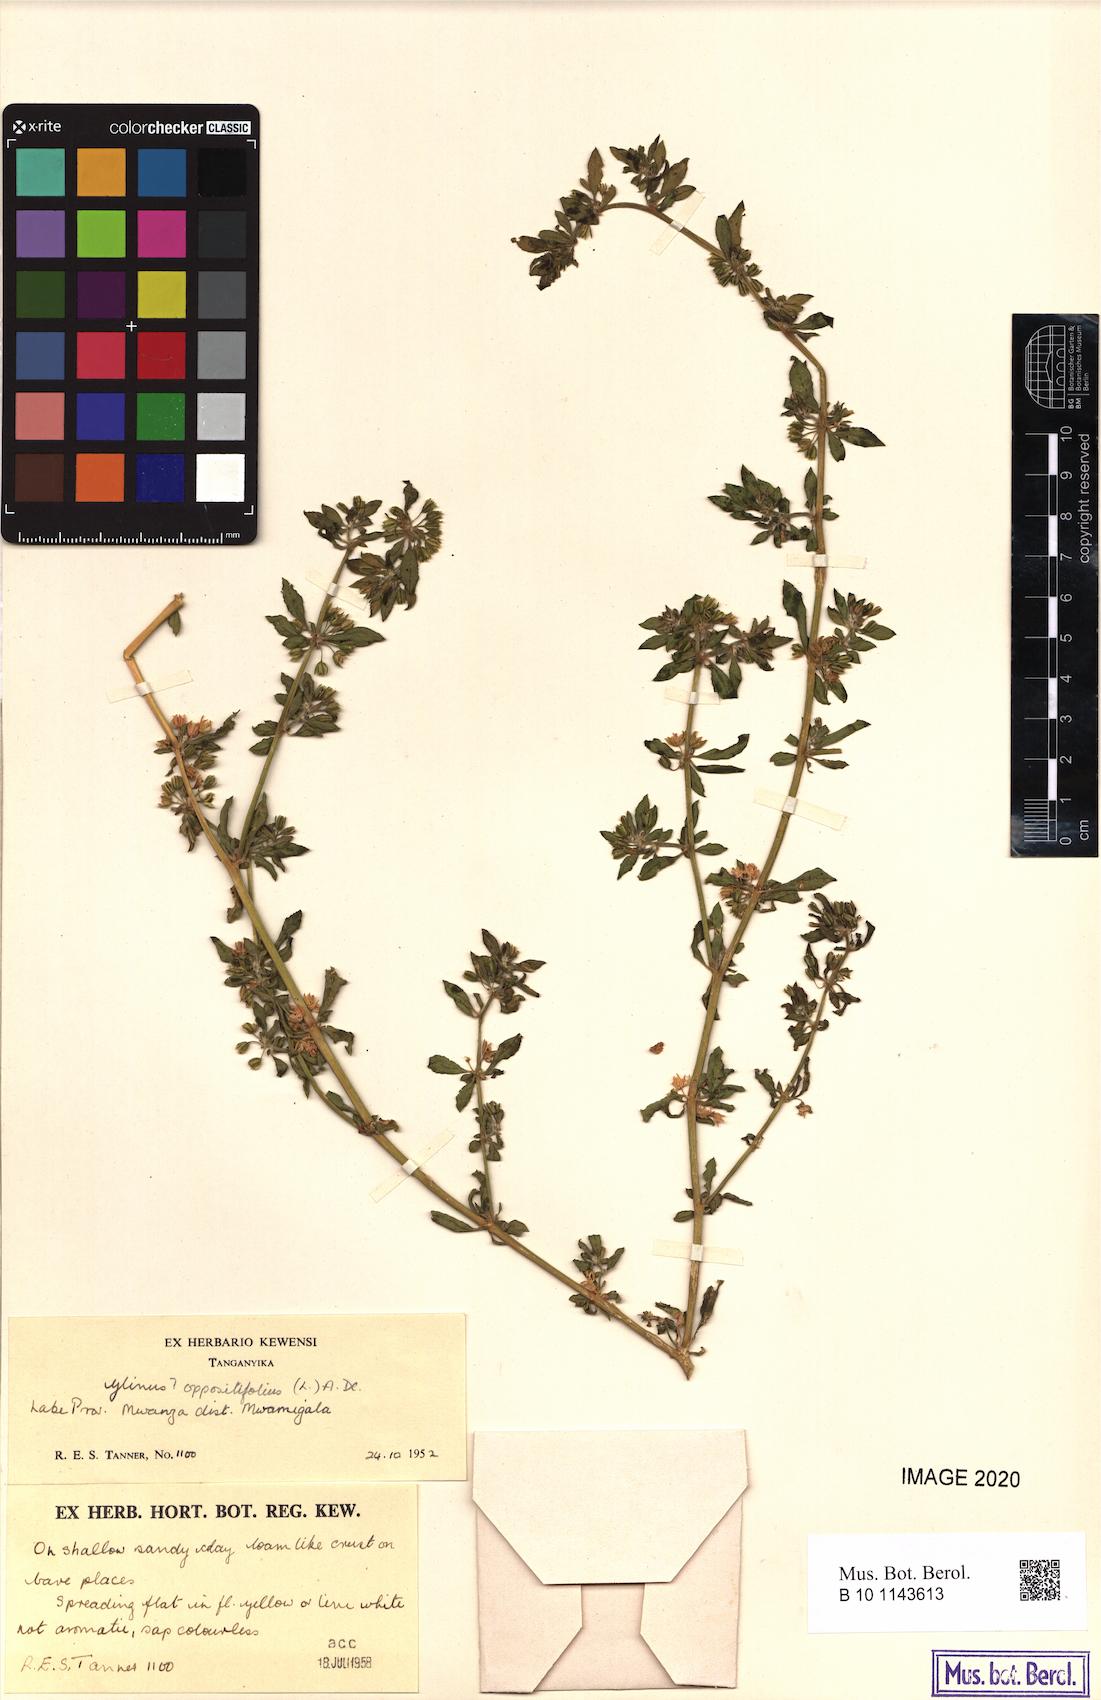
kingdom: Plantae
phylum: Tracheophyta
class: Magnoliopsida
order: Caryophyllales
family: Molluginaceae
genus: Glinus
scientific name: Glinus oppositifolius
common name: Slender carpetweed
